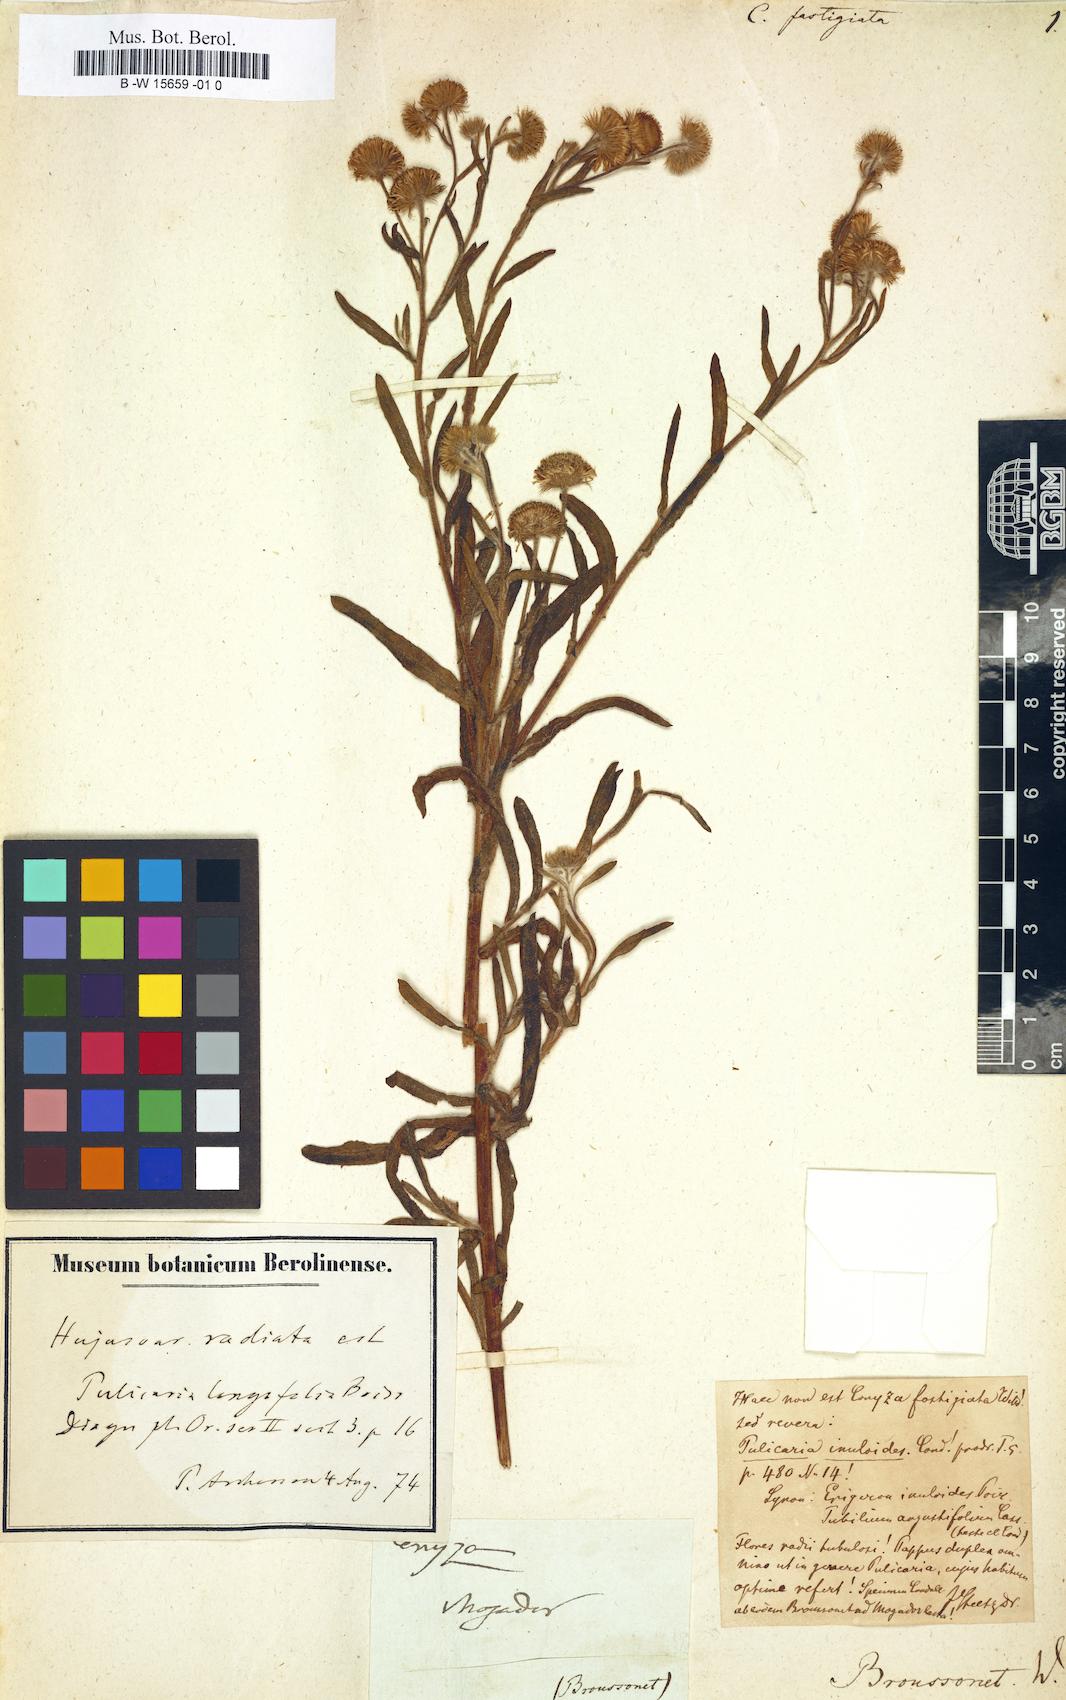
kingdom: Plantae
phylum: Tracheophyta
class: Magnoliopsida
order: Asterales
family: Asteraceae
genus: Erigeron
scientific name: Erigeron Conyza fastigiata
